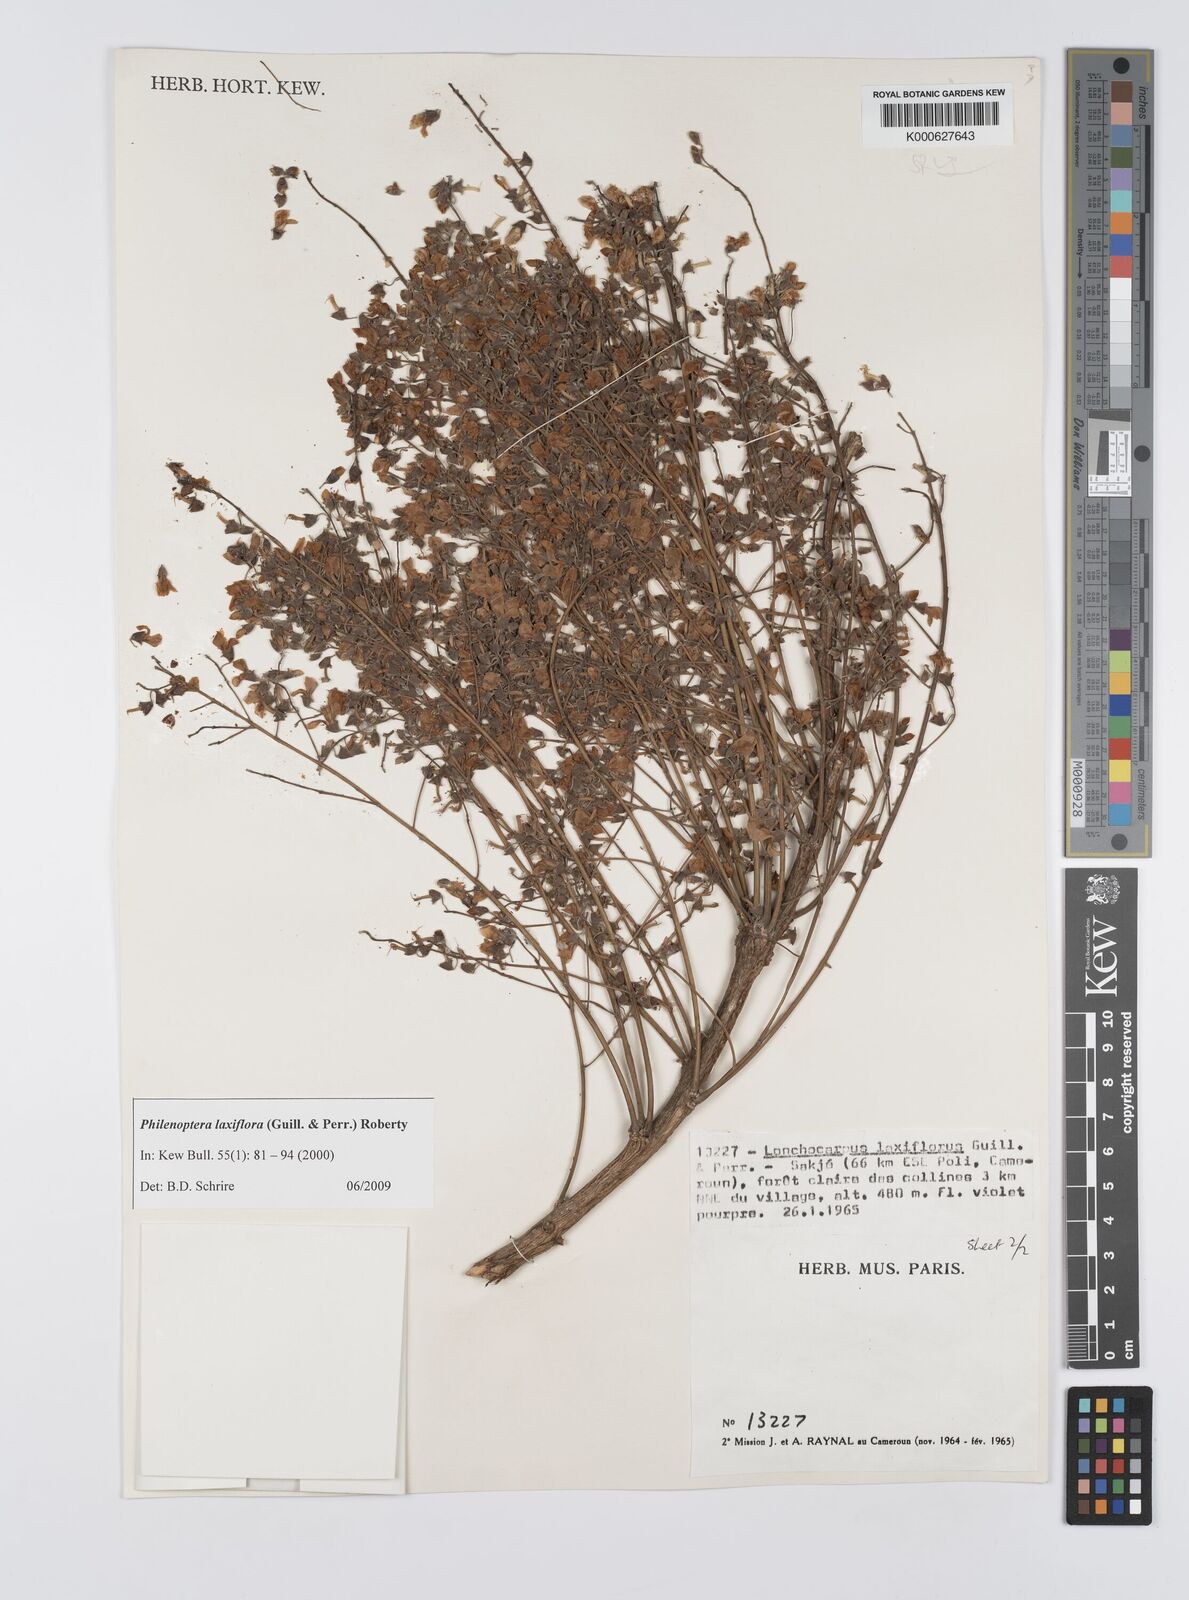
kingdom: Plantae
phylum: Tracheophyta
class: Magnoliopsida
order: Fabales
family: Fabaceae
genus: Philenoptera
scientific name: Philenoptera laxiflora
